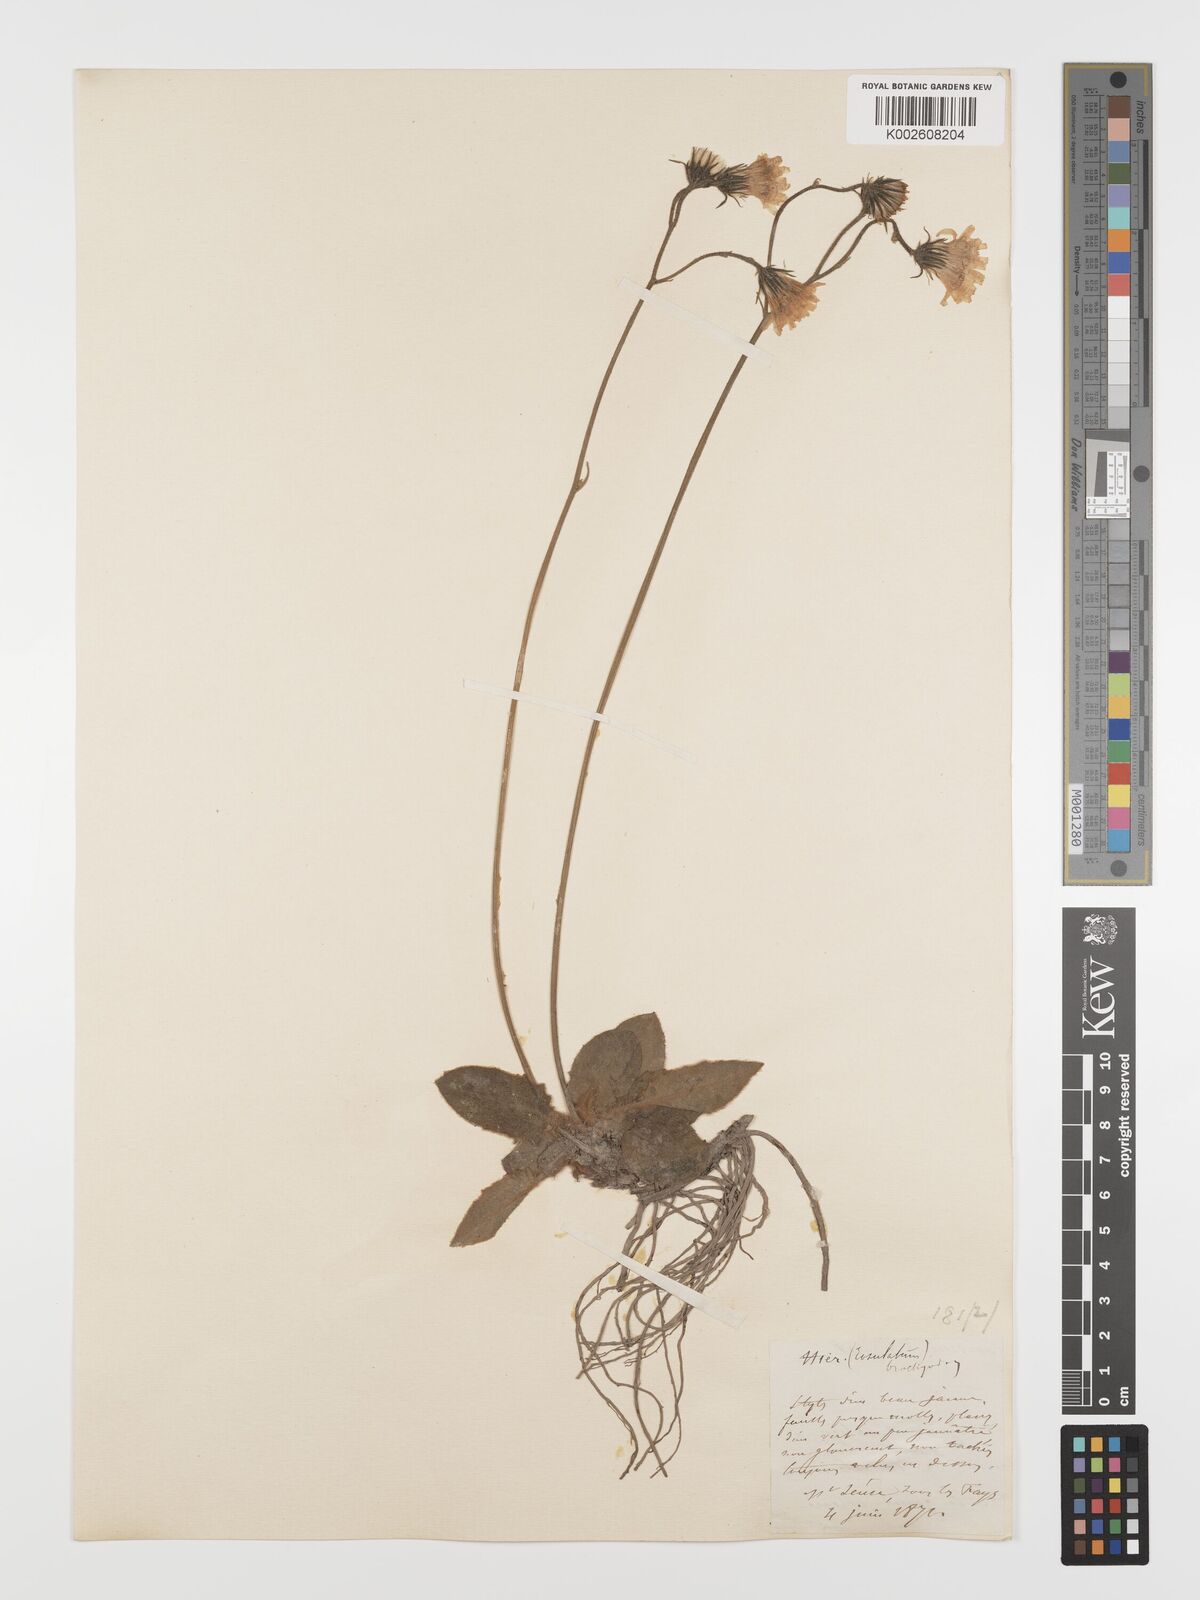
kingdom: Plantae
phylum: Tracheophyta
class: Magnoliopsida
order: Asterales
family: Asteraceae
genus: Hieracium
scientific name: Hieracium
